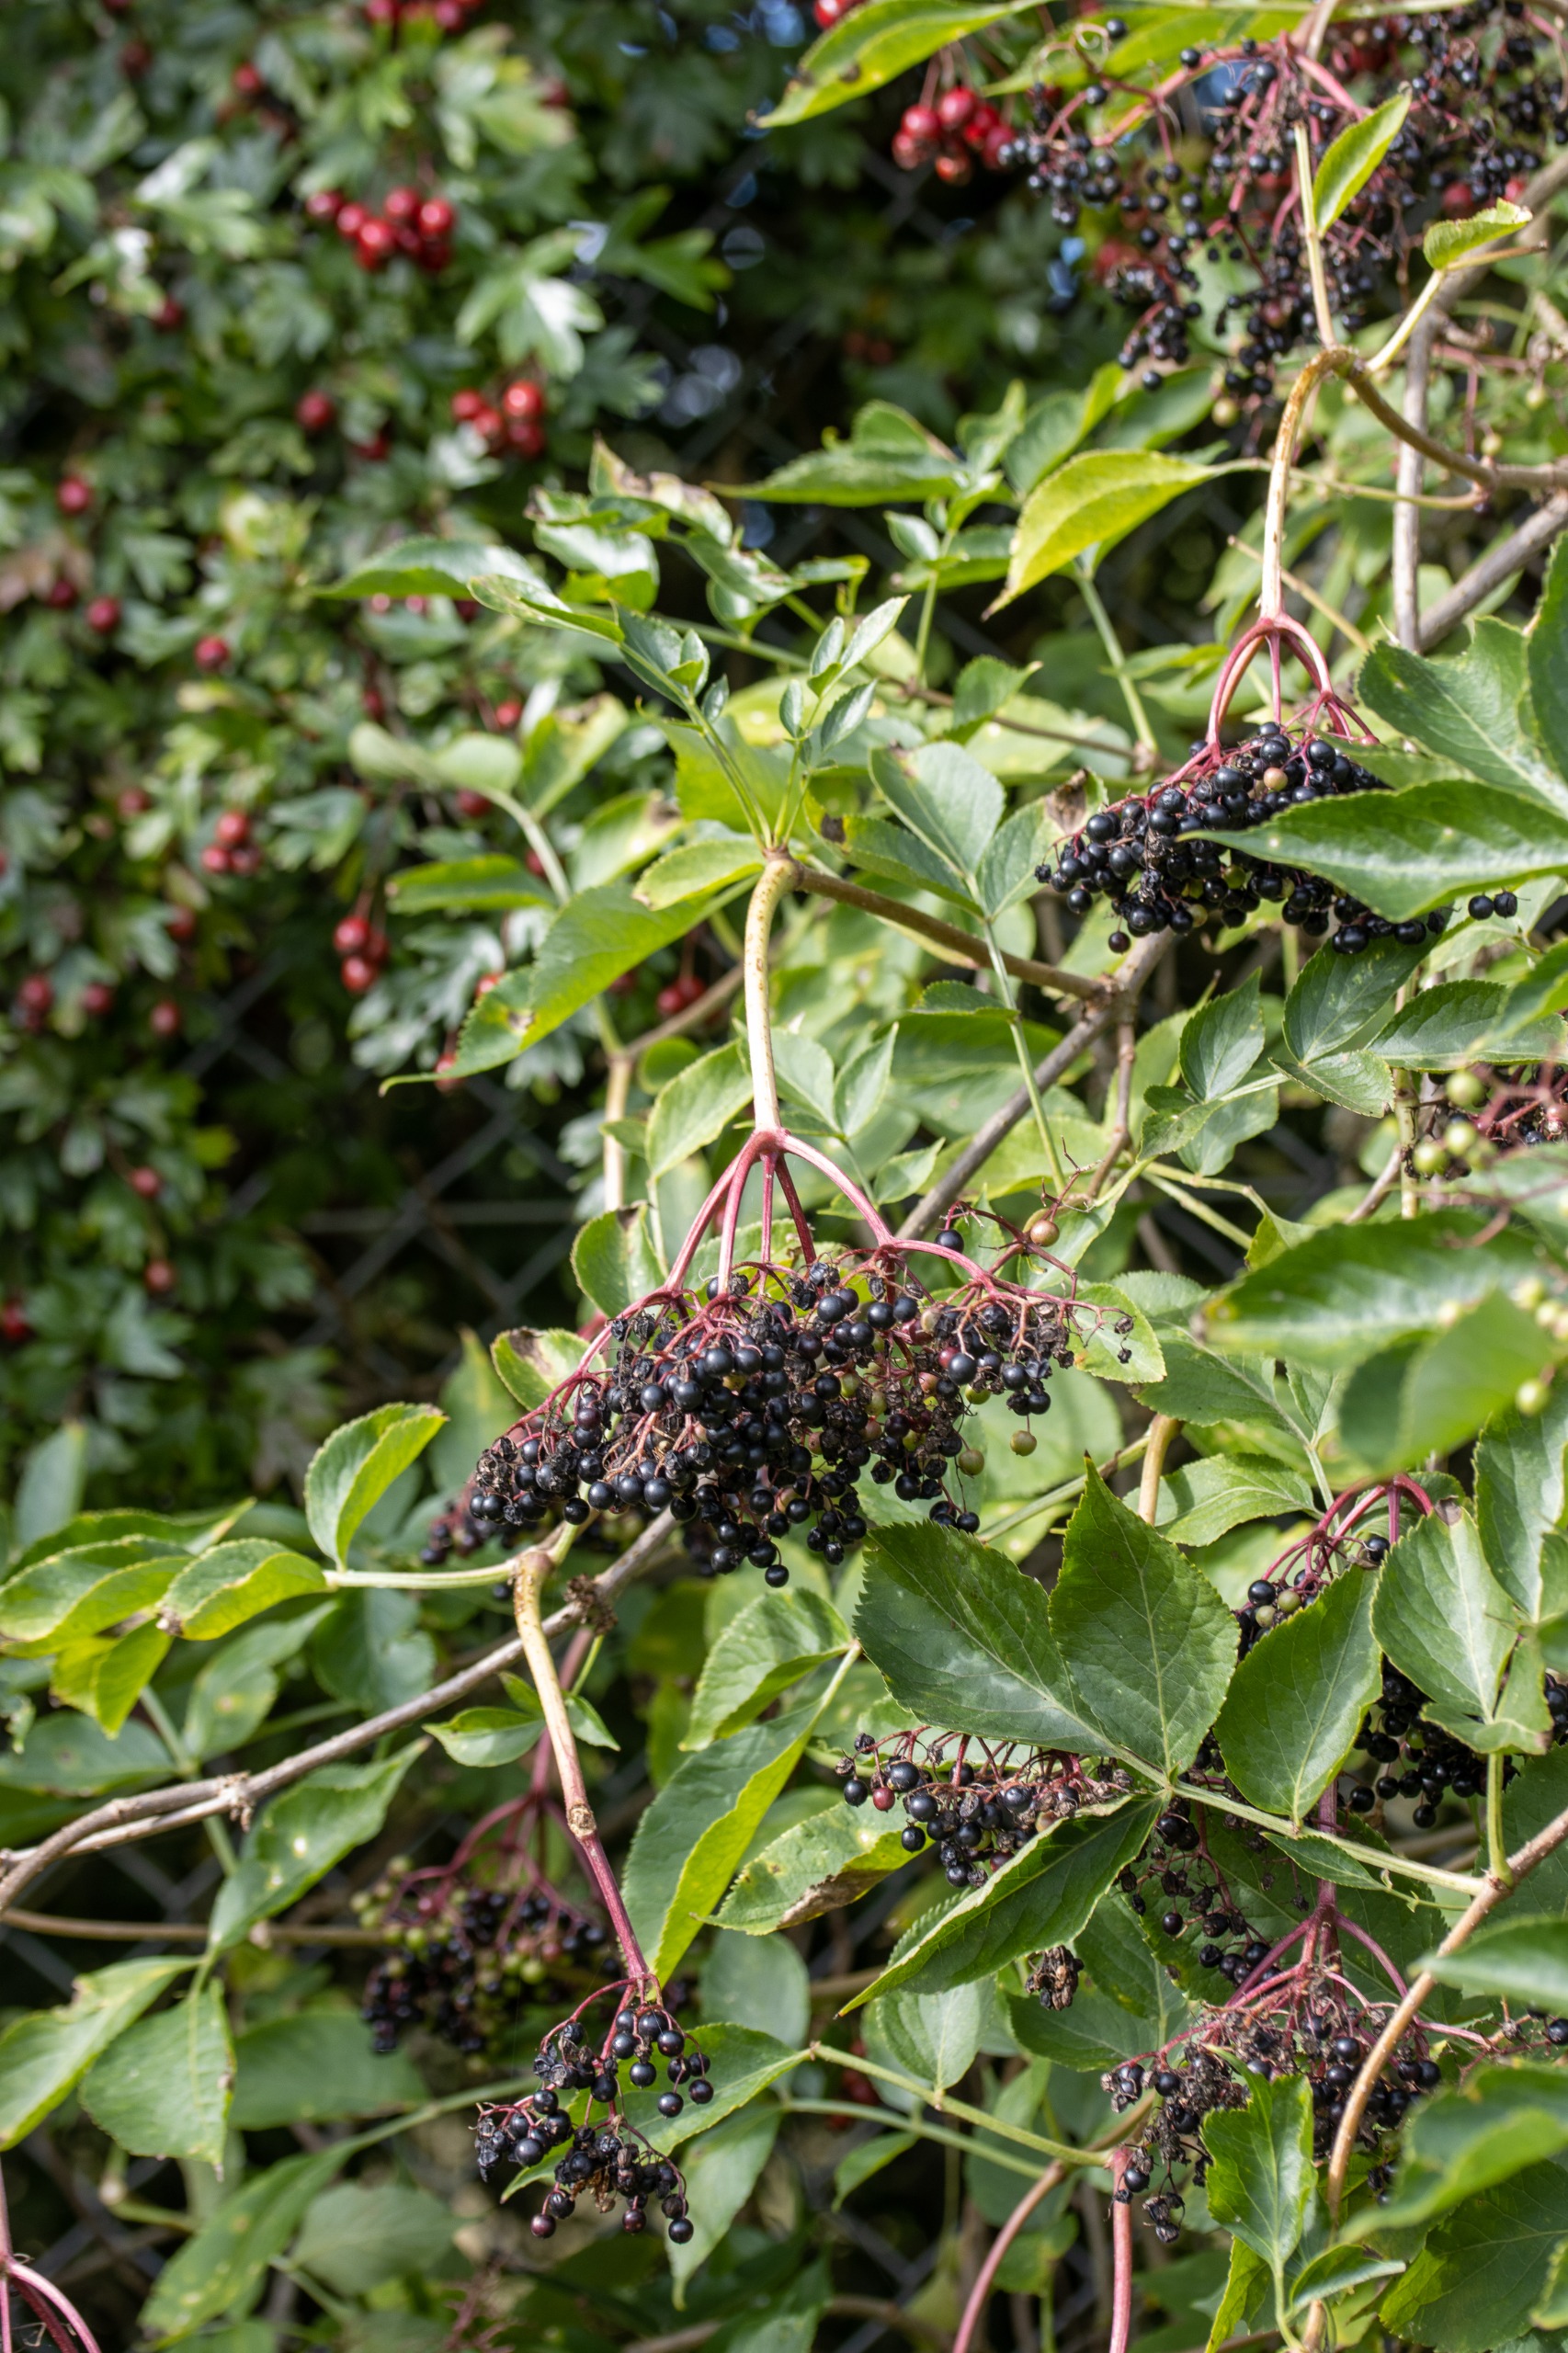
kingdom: Plantae
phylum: Tracheophyta
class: Magnoliopsida
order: Dipsacales
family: Viburnaceae
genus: Sambucus
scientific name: Sambucus nigra
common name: Almindelig hyld
